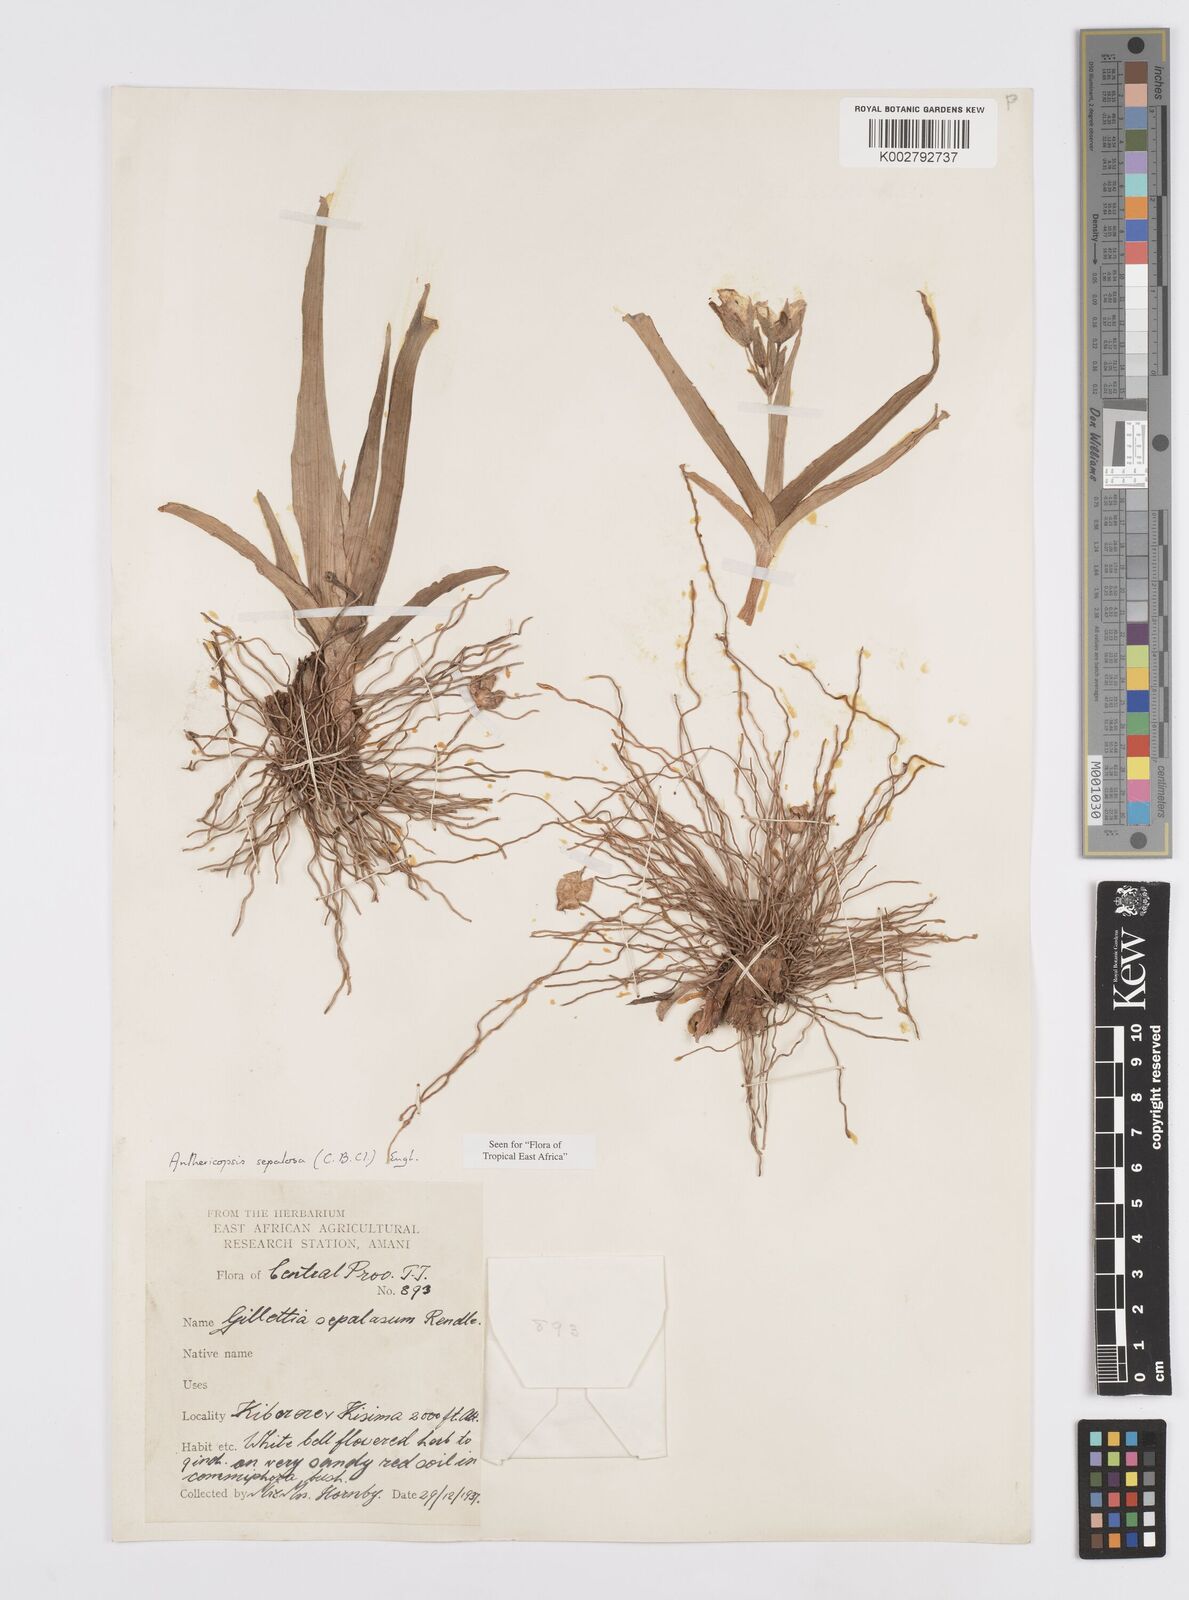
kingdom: Plantae
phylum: Tracheophyta
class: Liliopsida
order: Commelinales
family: Commelinaceae
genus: Anthericopsis
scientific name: Anthericopsis sepalosa
